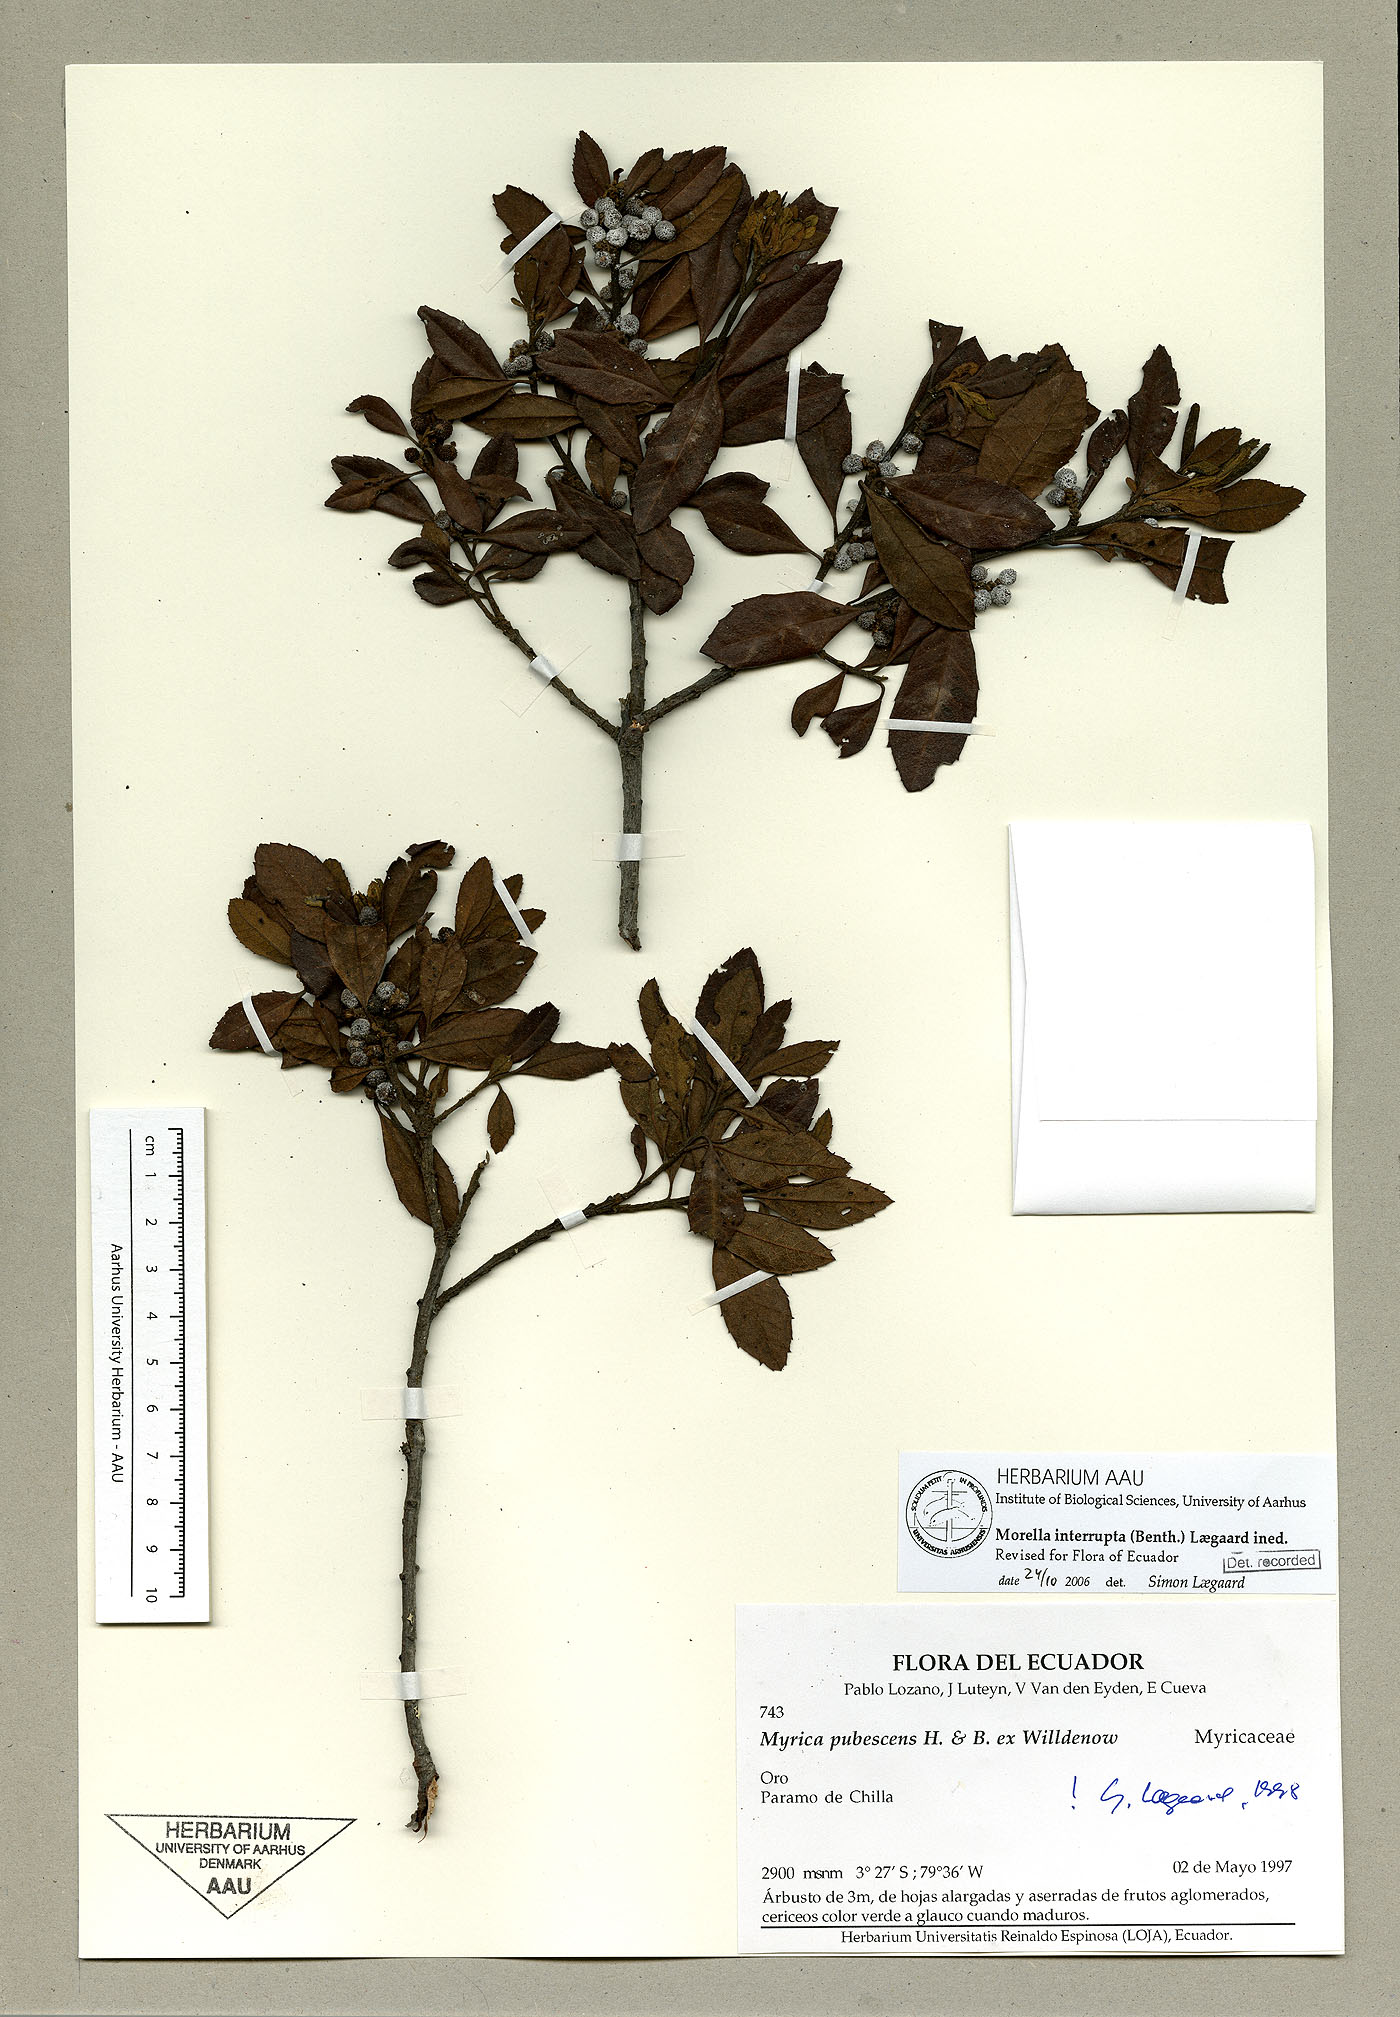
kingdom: Plantae
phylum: Tracheophyta
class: Magnoliopsida
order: Fagales
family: Myricaceae
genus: Morella
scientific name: Morella interrupta
